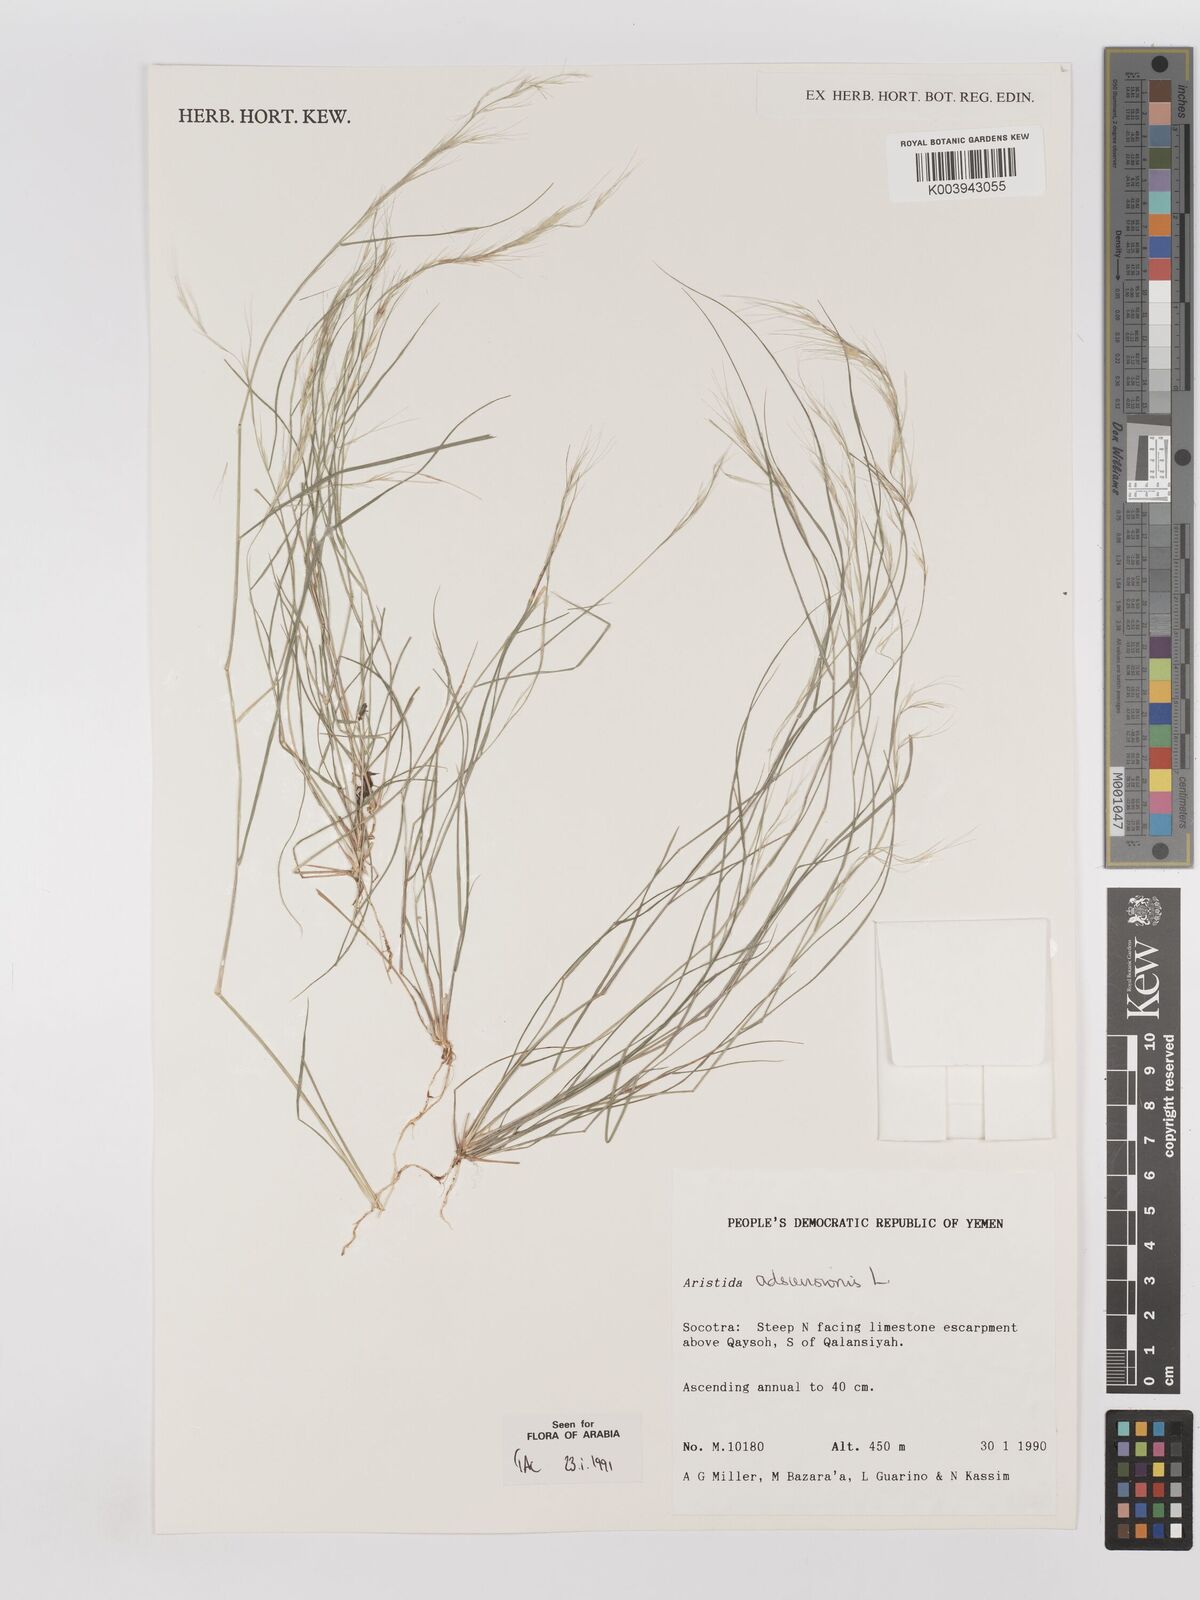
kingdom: Plantae
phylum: Tracheophyta
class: Liliopsida
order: Poales
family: Poaceae
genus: Aristida
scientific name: Aristida adscensionis
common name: Sixweeks threeawn
